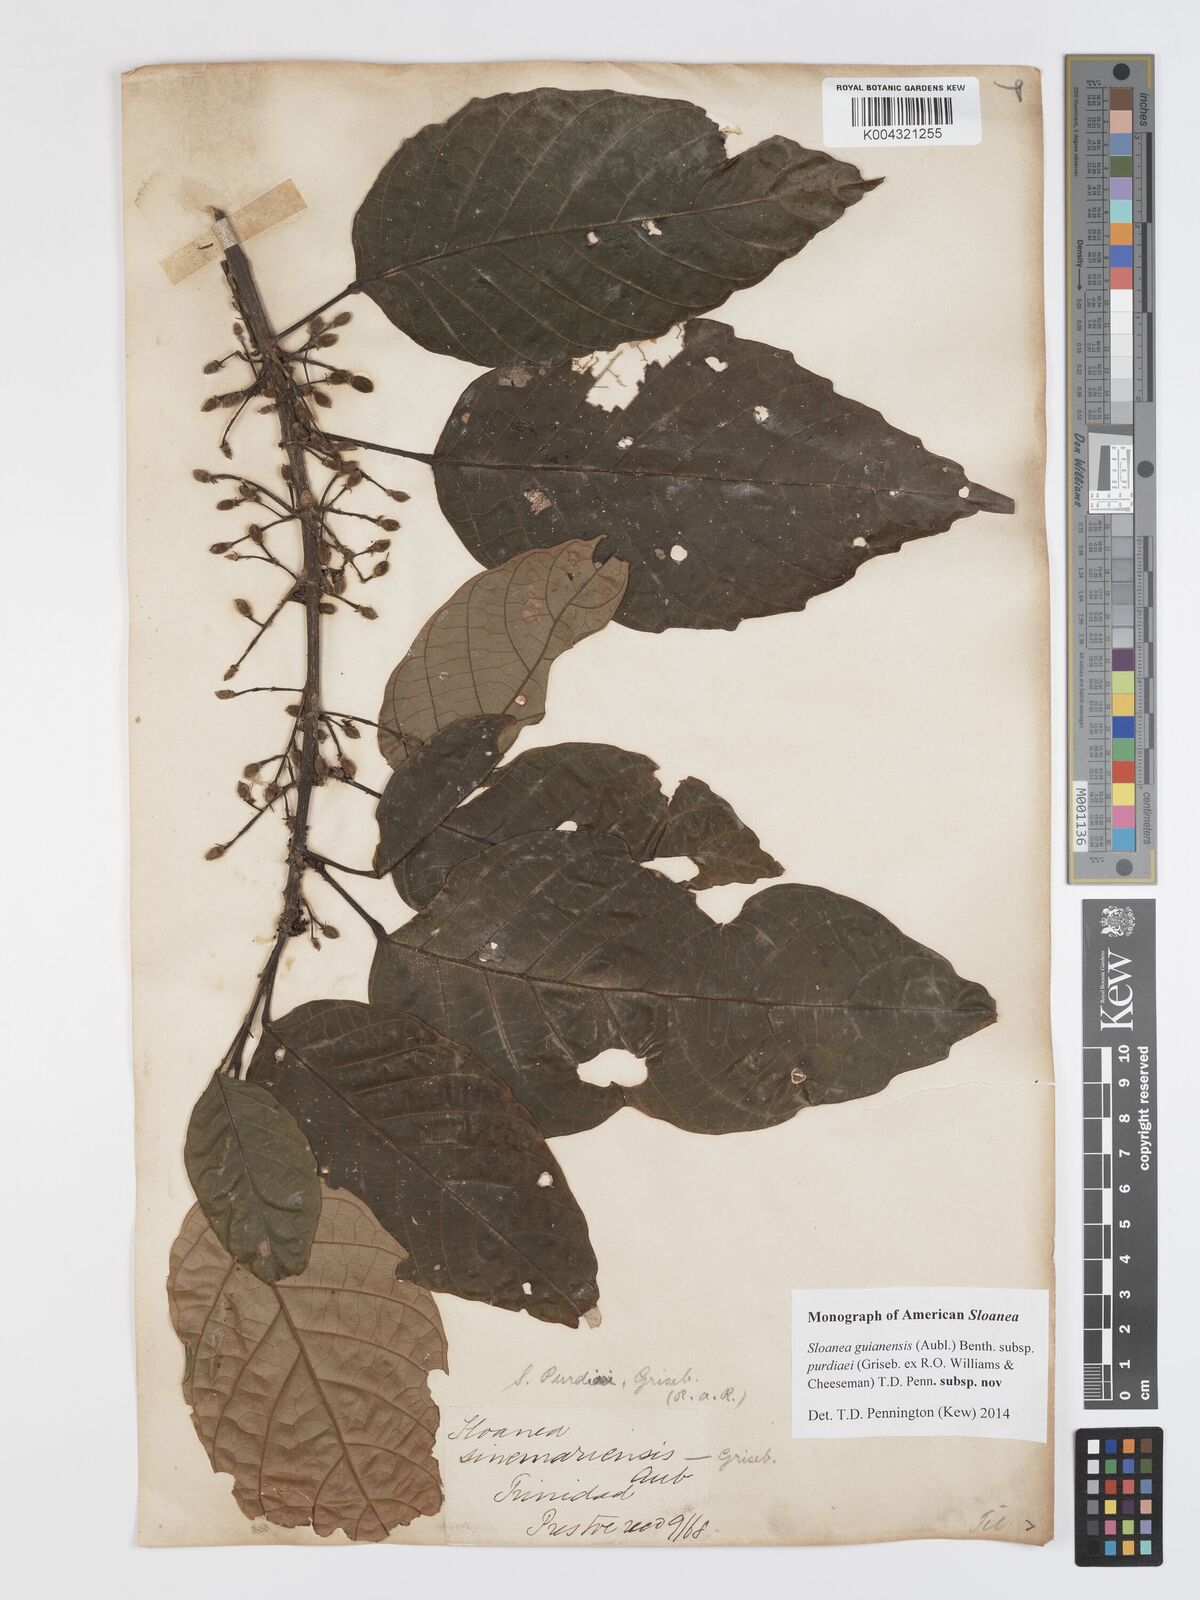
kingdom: Plantae
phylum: Tracheophyta
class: Magnoliopsida
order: Oxalidales
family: Elaeocarpaceae
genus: Sloanea
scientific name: Sloanea guianensis
